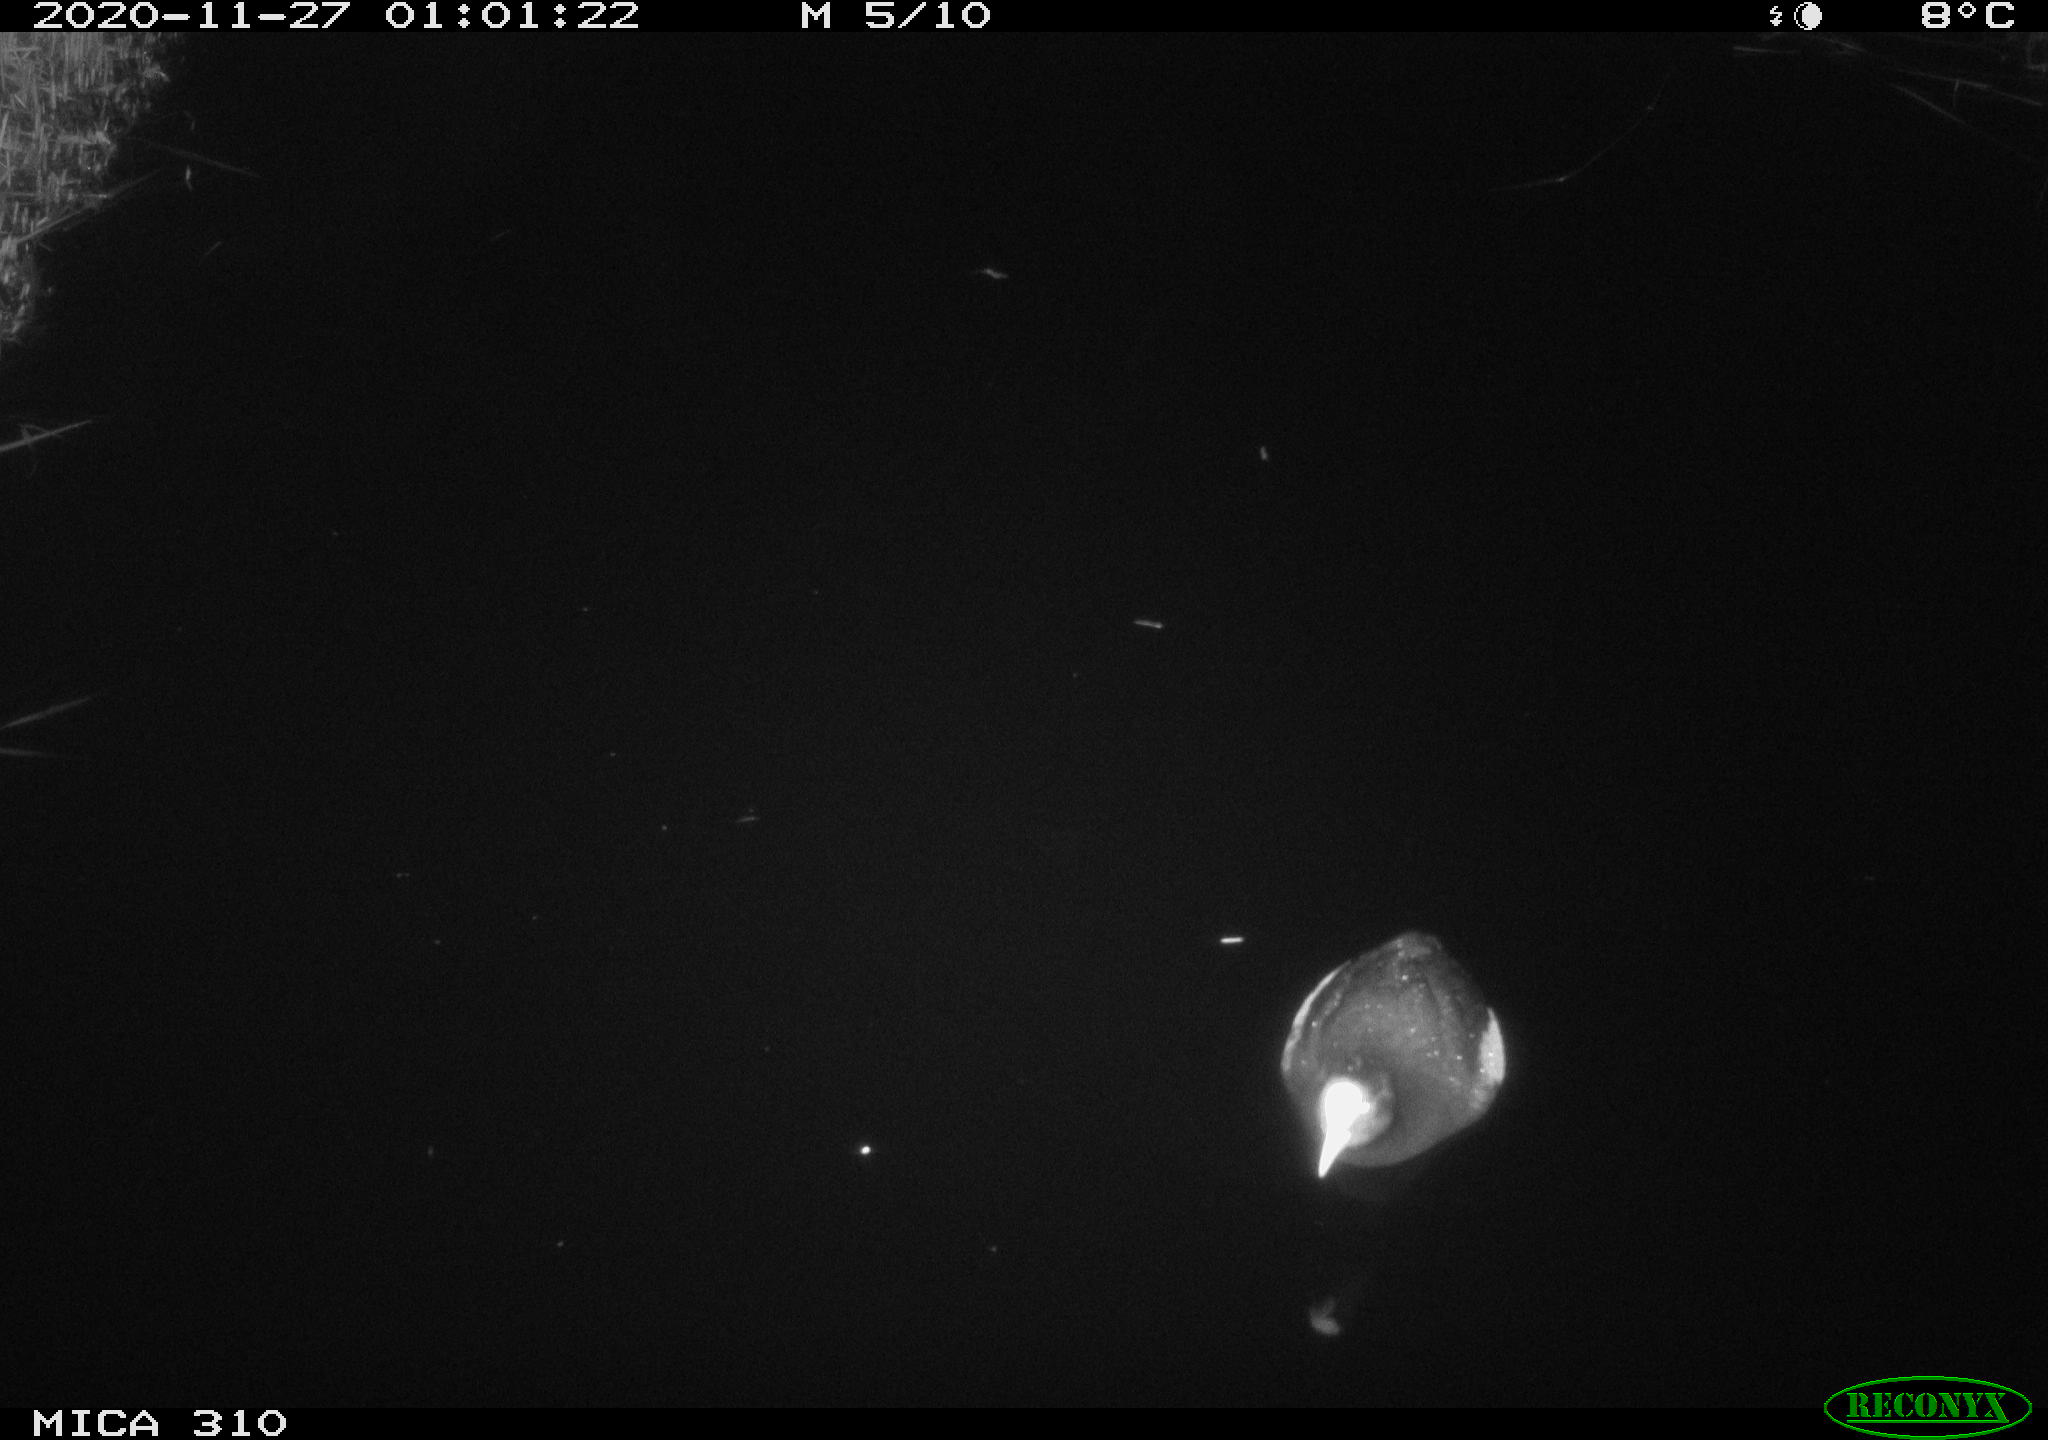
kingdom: Animalia
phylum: Chordata
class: Aves
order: Gruiformes
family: Rallidae
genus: Gallinula
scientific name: Gallinula chloropus
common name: Common moorhen
